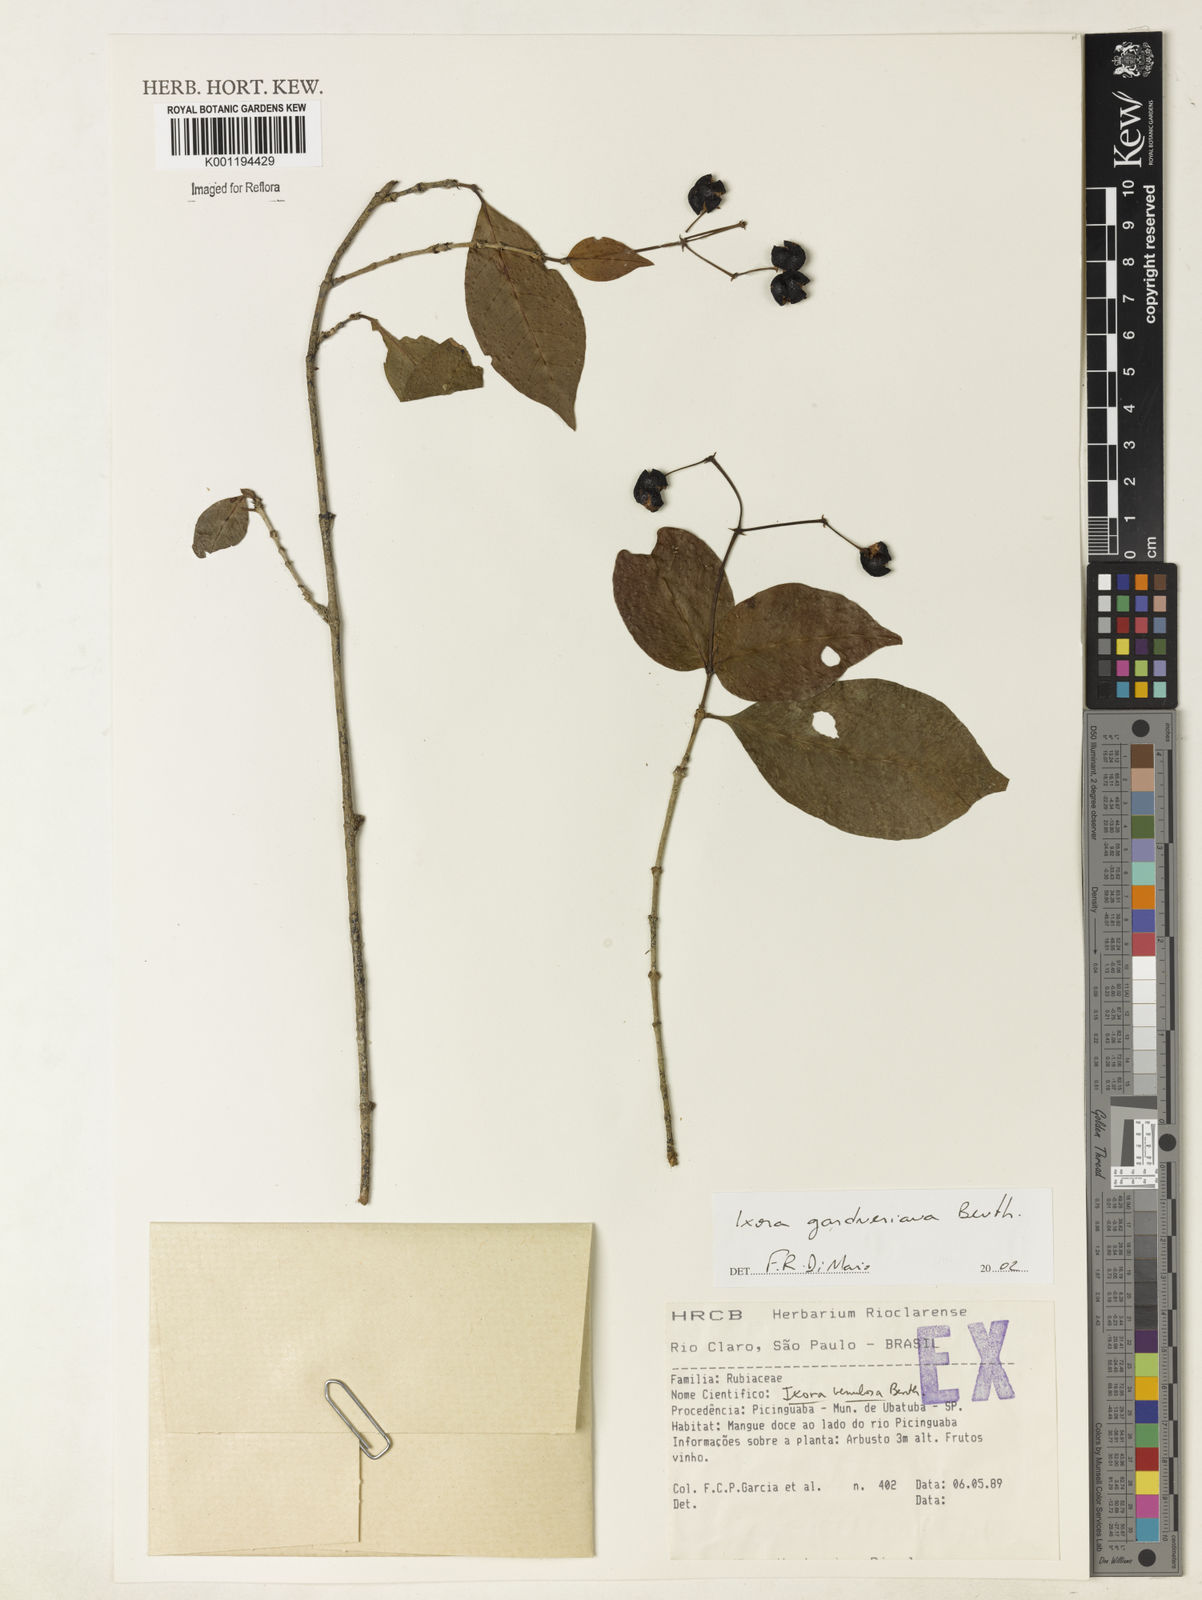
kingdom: Plantae
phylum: Tracheophyta
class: Magnoliopsida
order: Gentianales
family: Rubiaceae
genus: Ixora
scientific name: Ixora gardneriana
